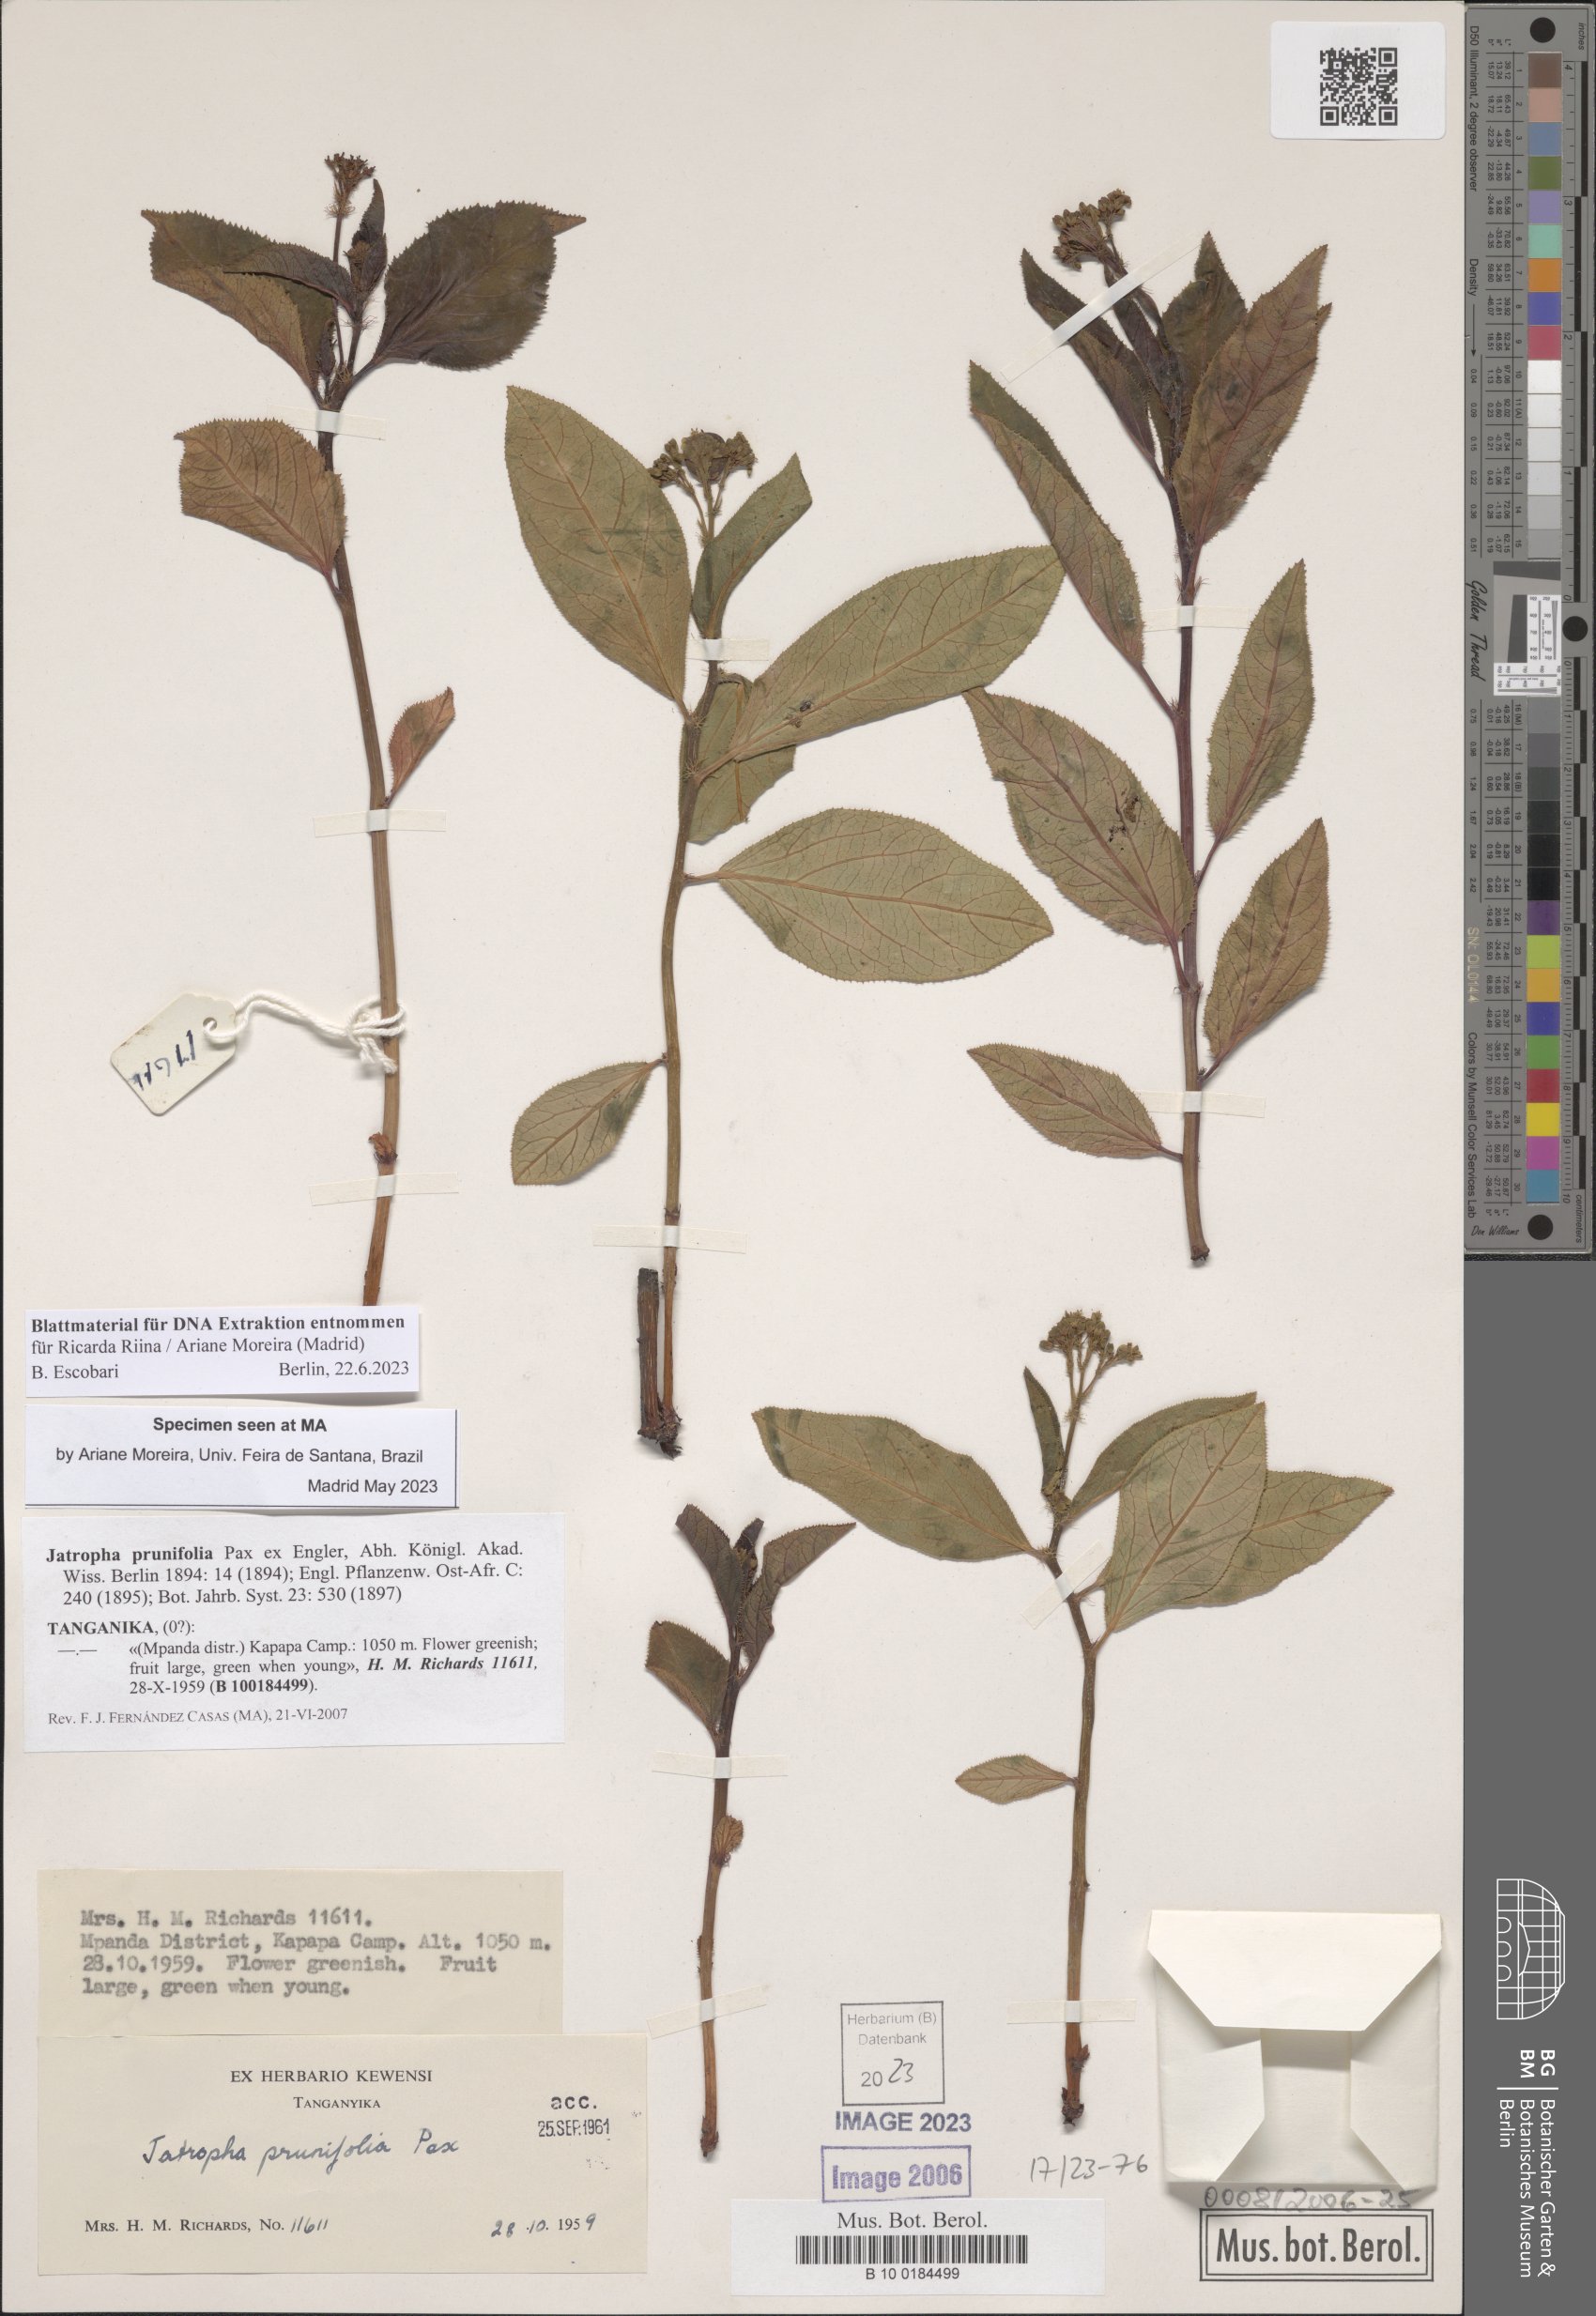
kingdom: Plantae
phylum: Tracheophyta
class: Magnoliopsida
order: Malpighiales
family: Euphorbiaceae
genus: Jatropha
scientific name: Jatropha prunifolia
